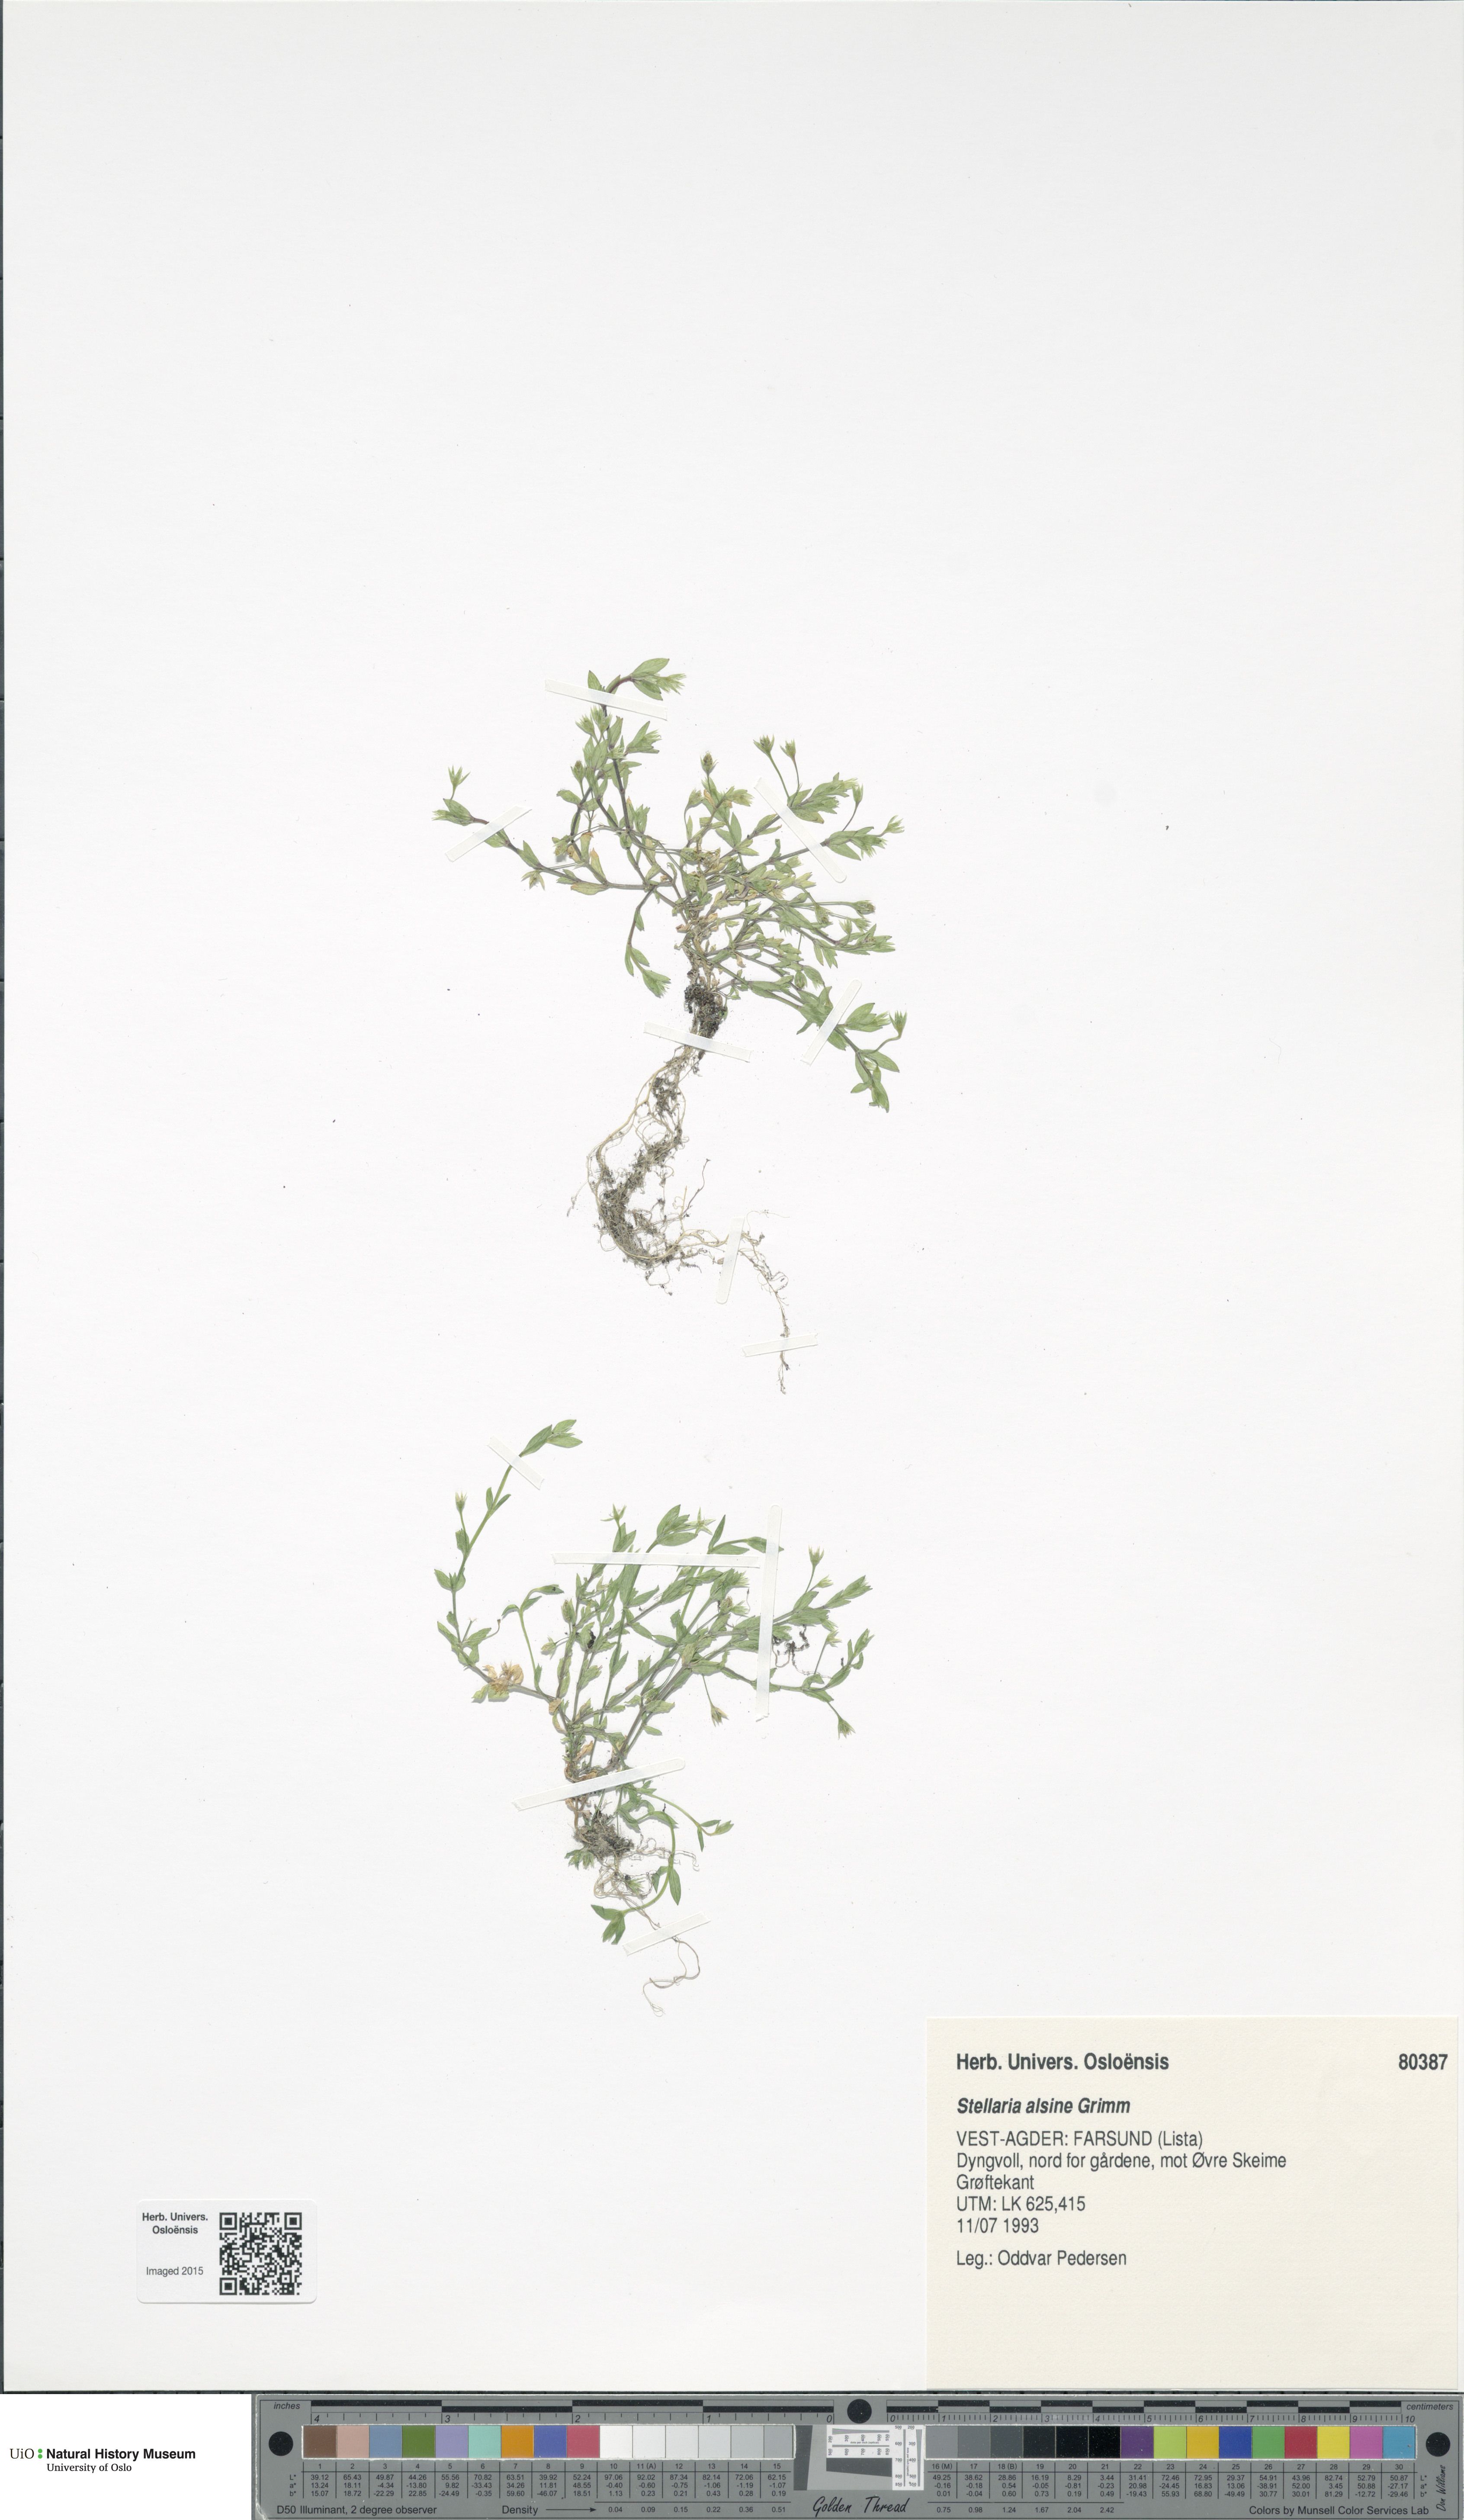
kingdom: Plantae
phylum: Tracheophyta
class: Magnoliopsida
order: Caryophyllales
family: Caryophyllaceae
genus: Stellaria
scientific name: Stellaria alsine
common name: Bog stitchwort
